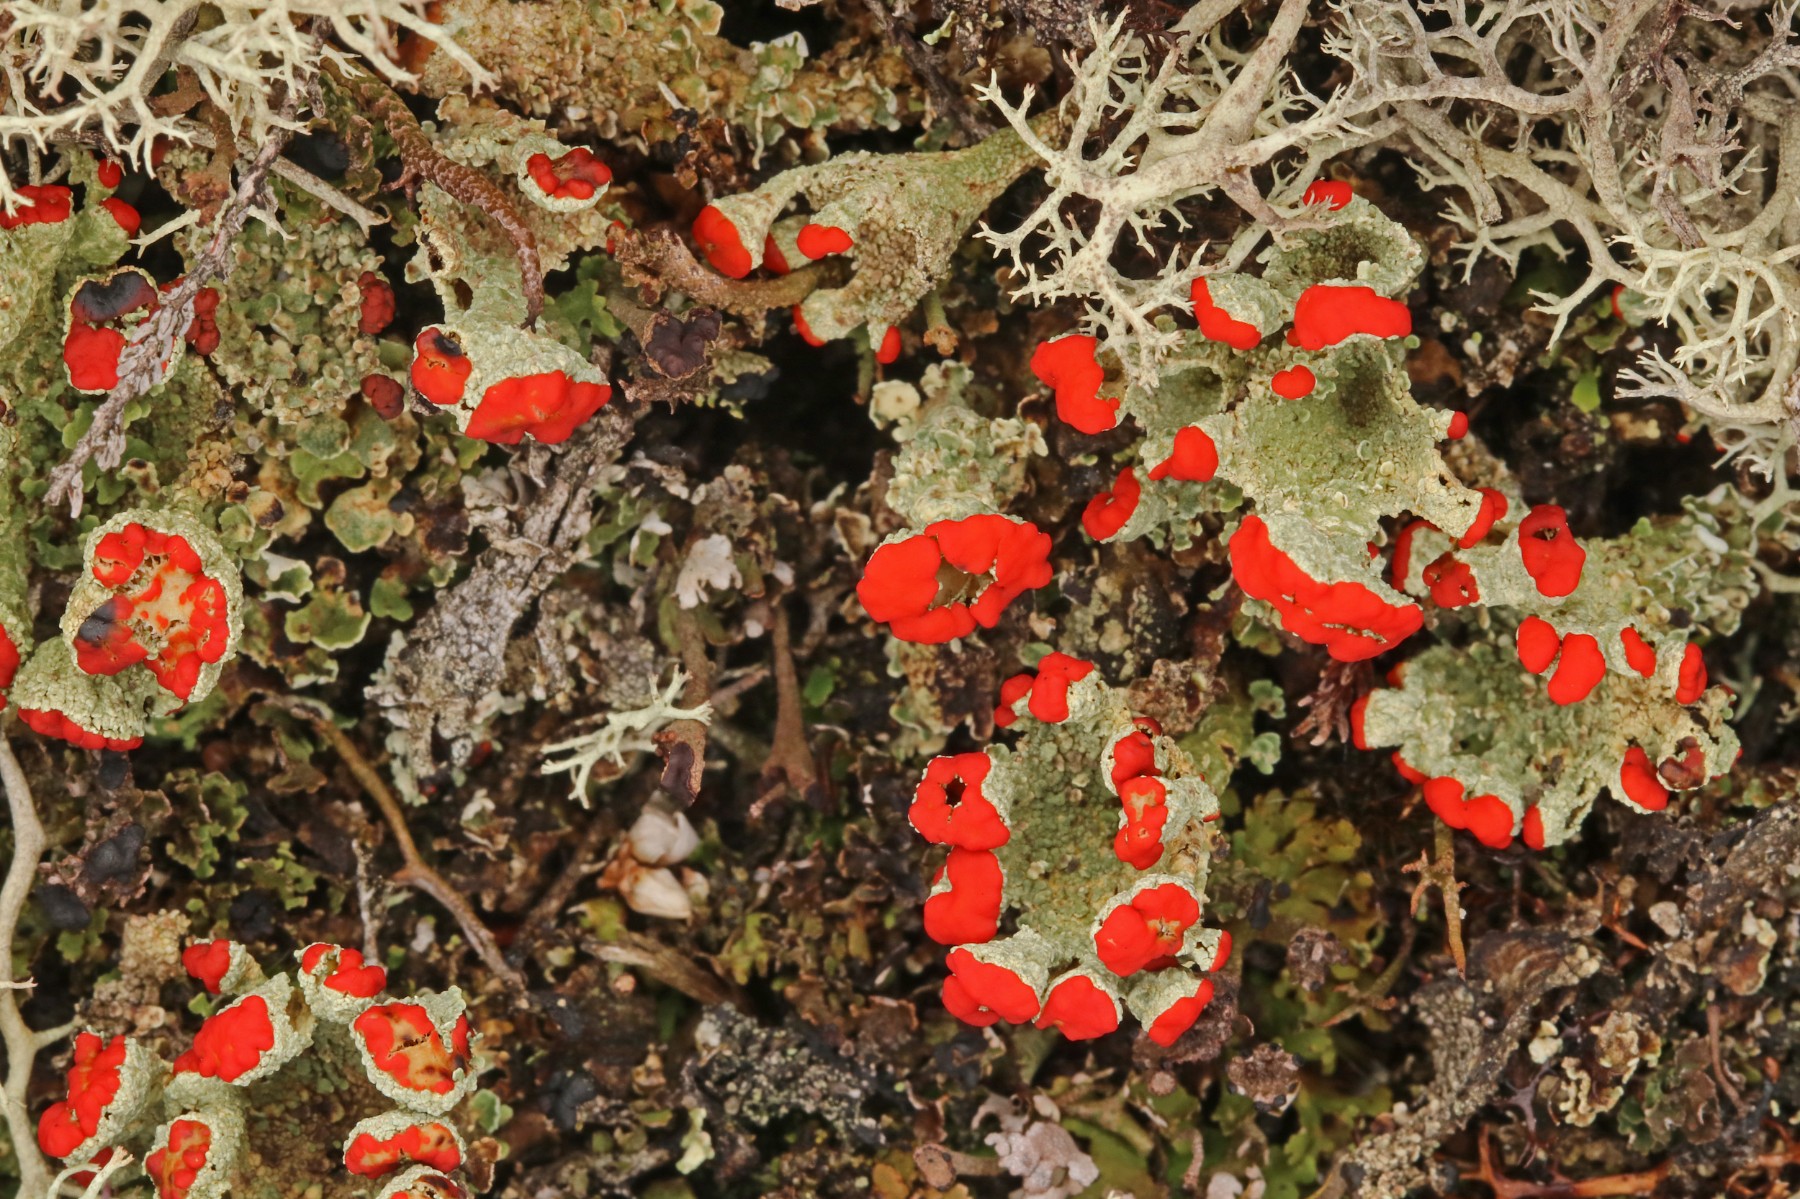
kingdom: Fungi
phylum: Ascomycota
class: Lecanoromycetes
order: Lecanorales
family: Cladoniaceae
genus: Cladonia
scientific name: Cladonia diversa
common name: rød bægerlav
